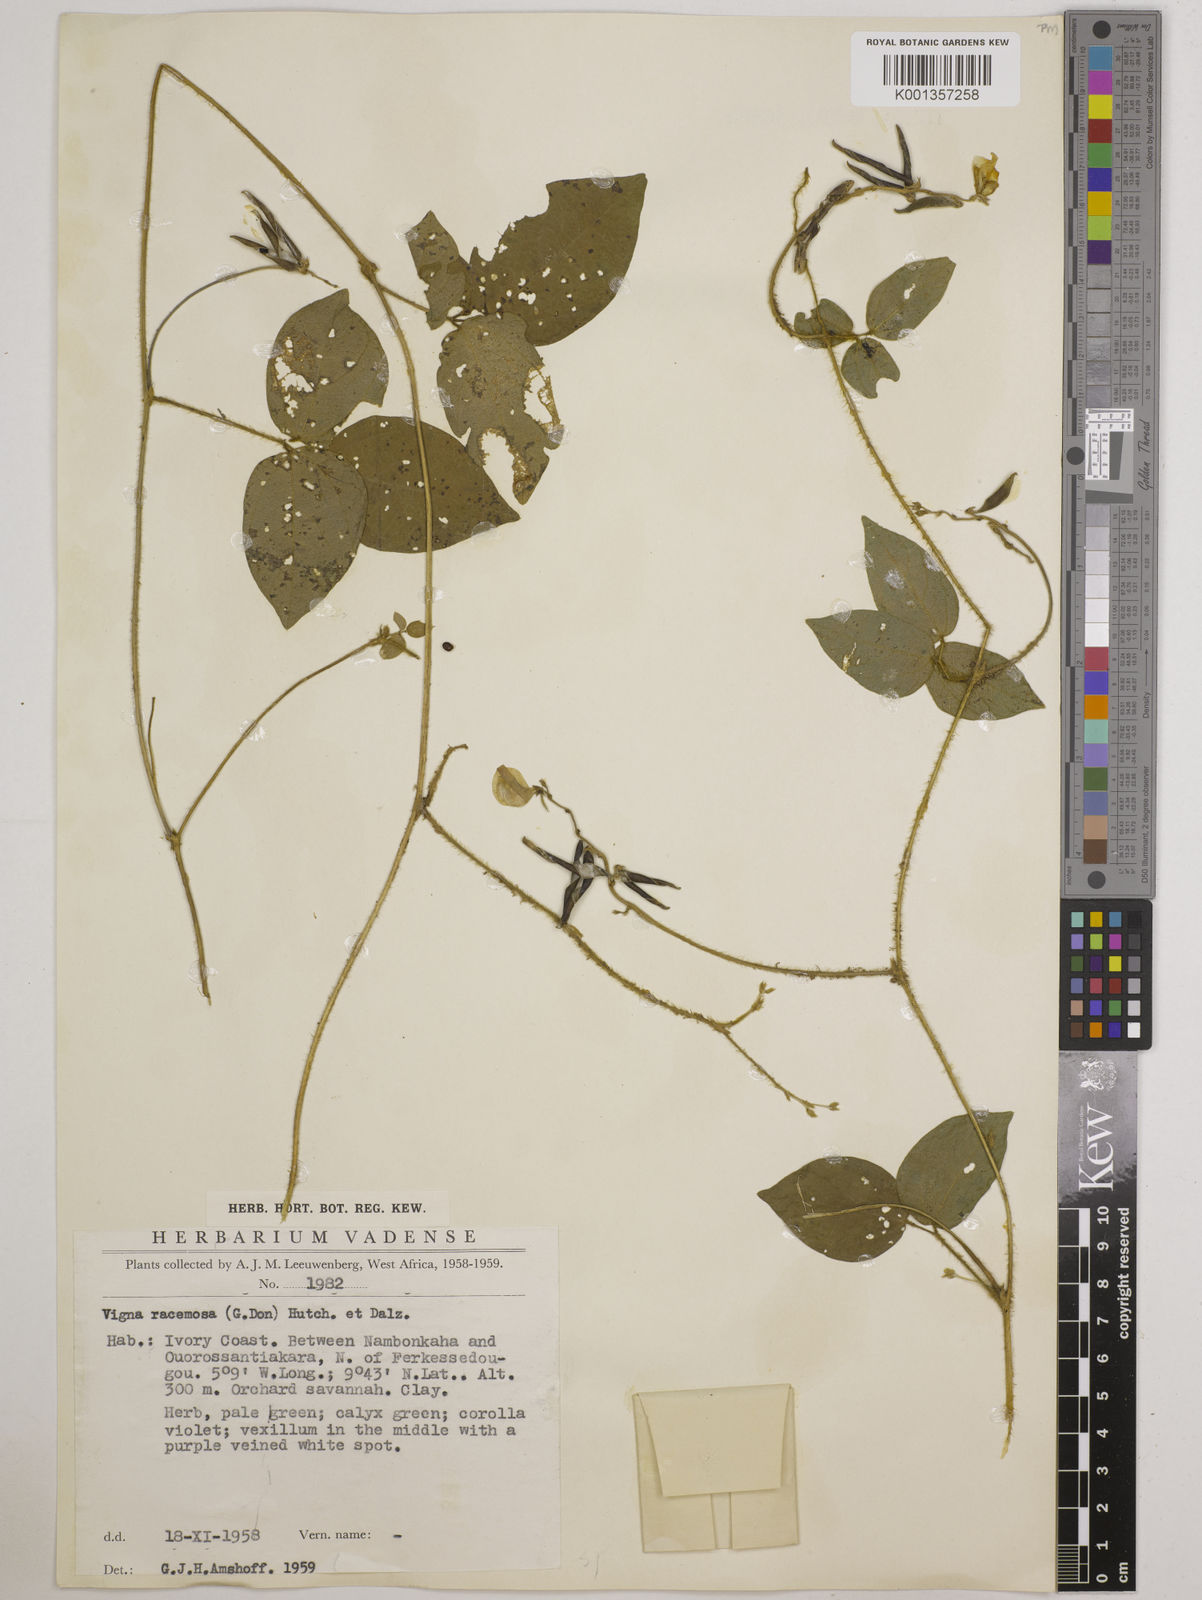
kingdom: Plantae
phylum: Tracheophyta
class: Magnoliopsida
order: Fabales
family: Fabaceae
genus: Vigna
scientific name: Vigna racemosa
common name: Beans not eaten
